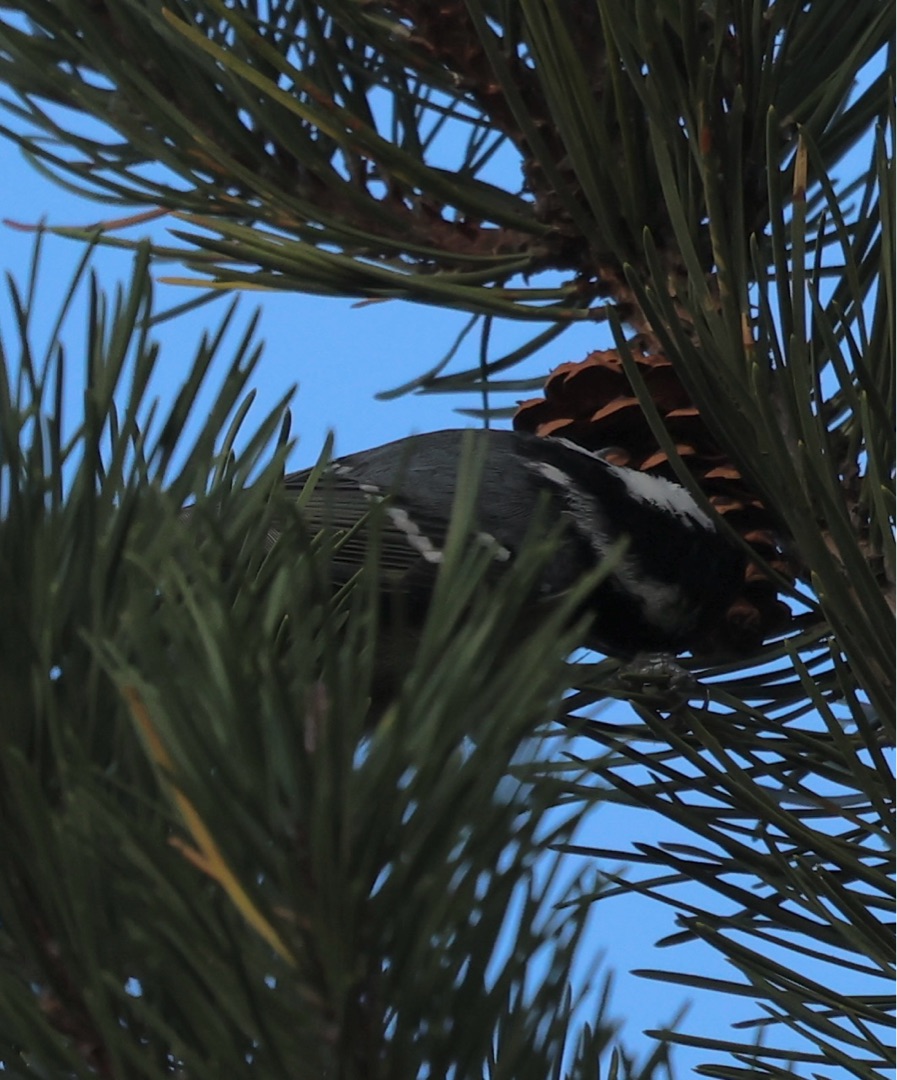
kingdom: Animalia
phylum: Chordata
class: Aves
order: Passeriformes
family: Paridae
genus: Periparus
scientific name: Periparus ater
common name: Sortmejse
